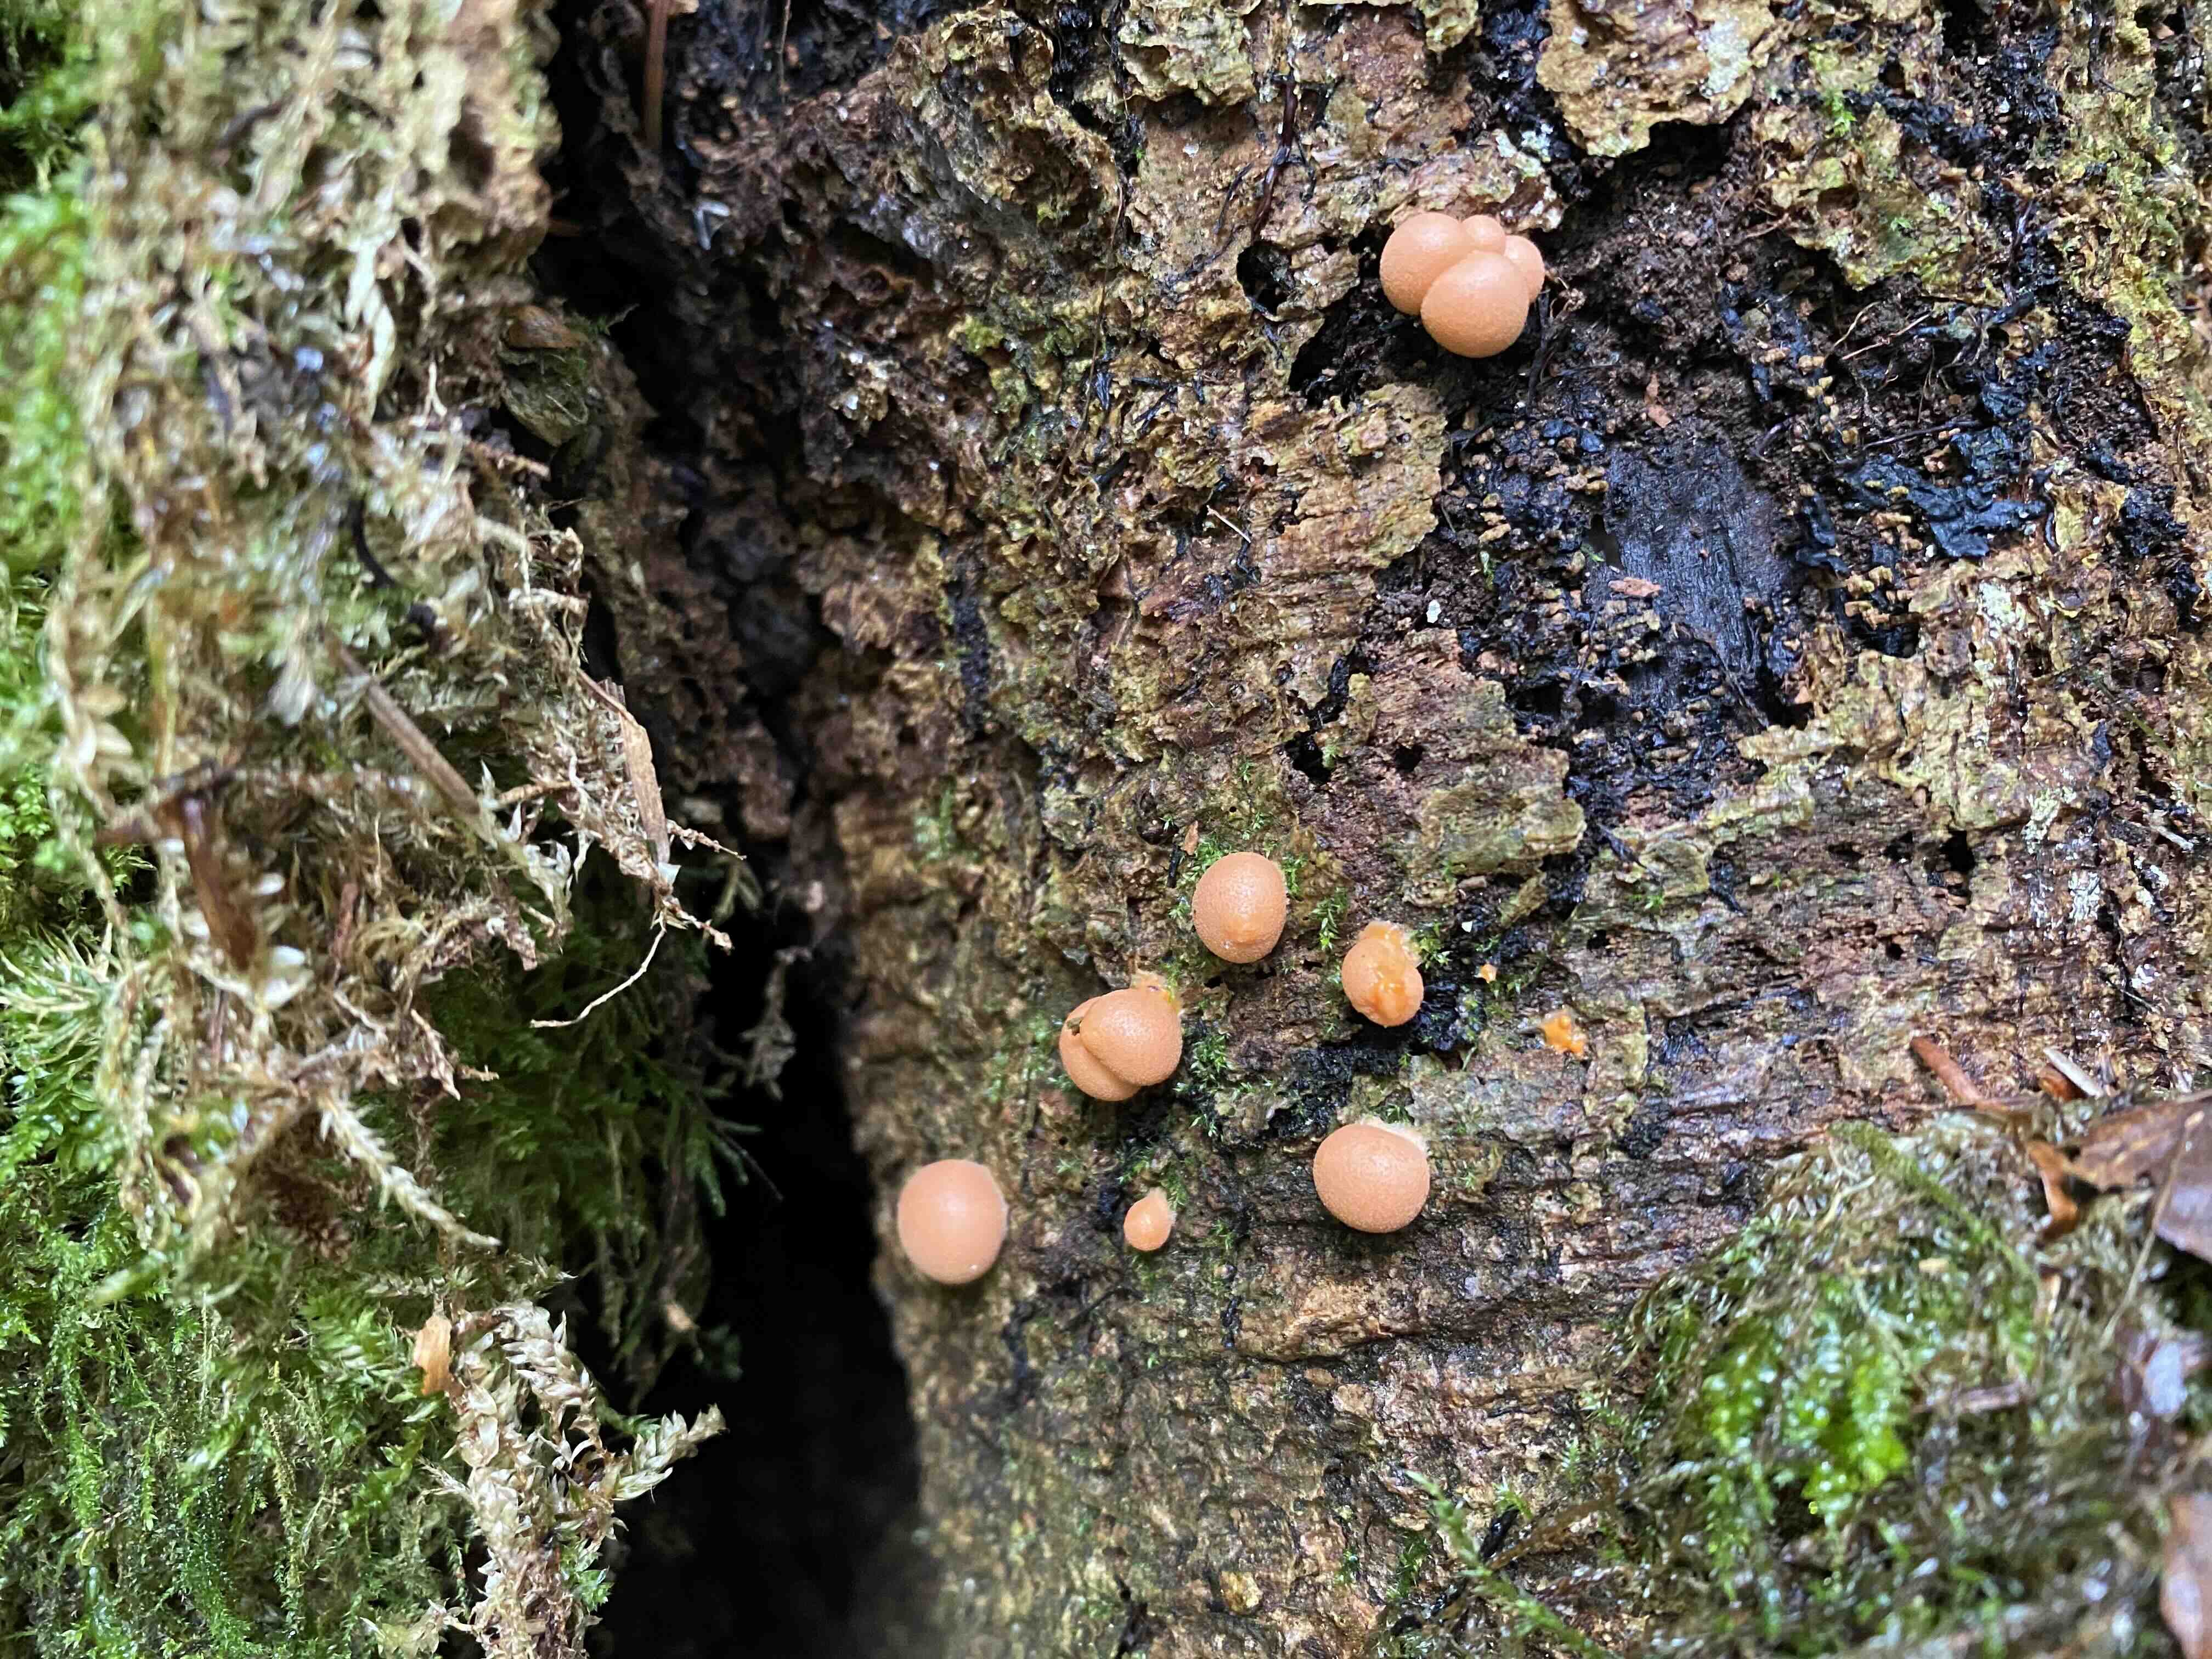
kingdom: Protozoa
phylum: Mycetozoa
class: Myxomycetes
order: Cribrariales
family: Tubiferaceae
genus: Lycogala
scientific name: Lycogala epidendrum
